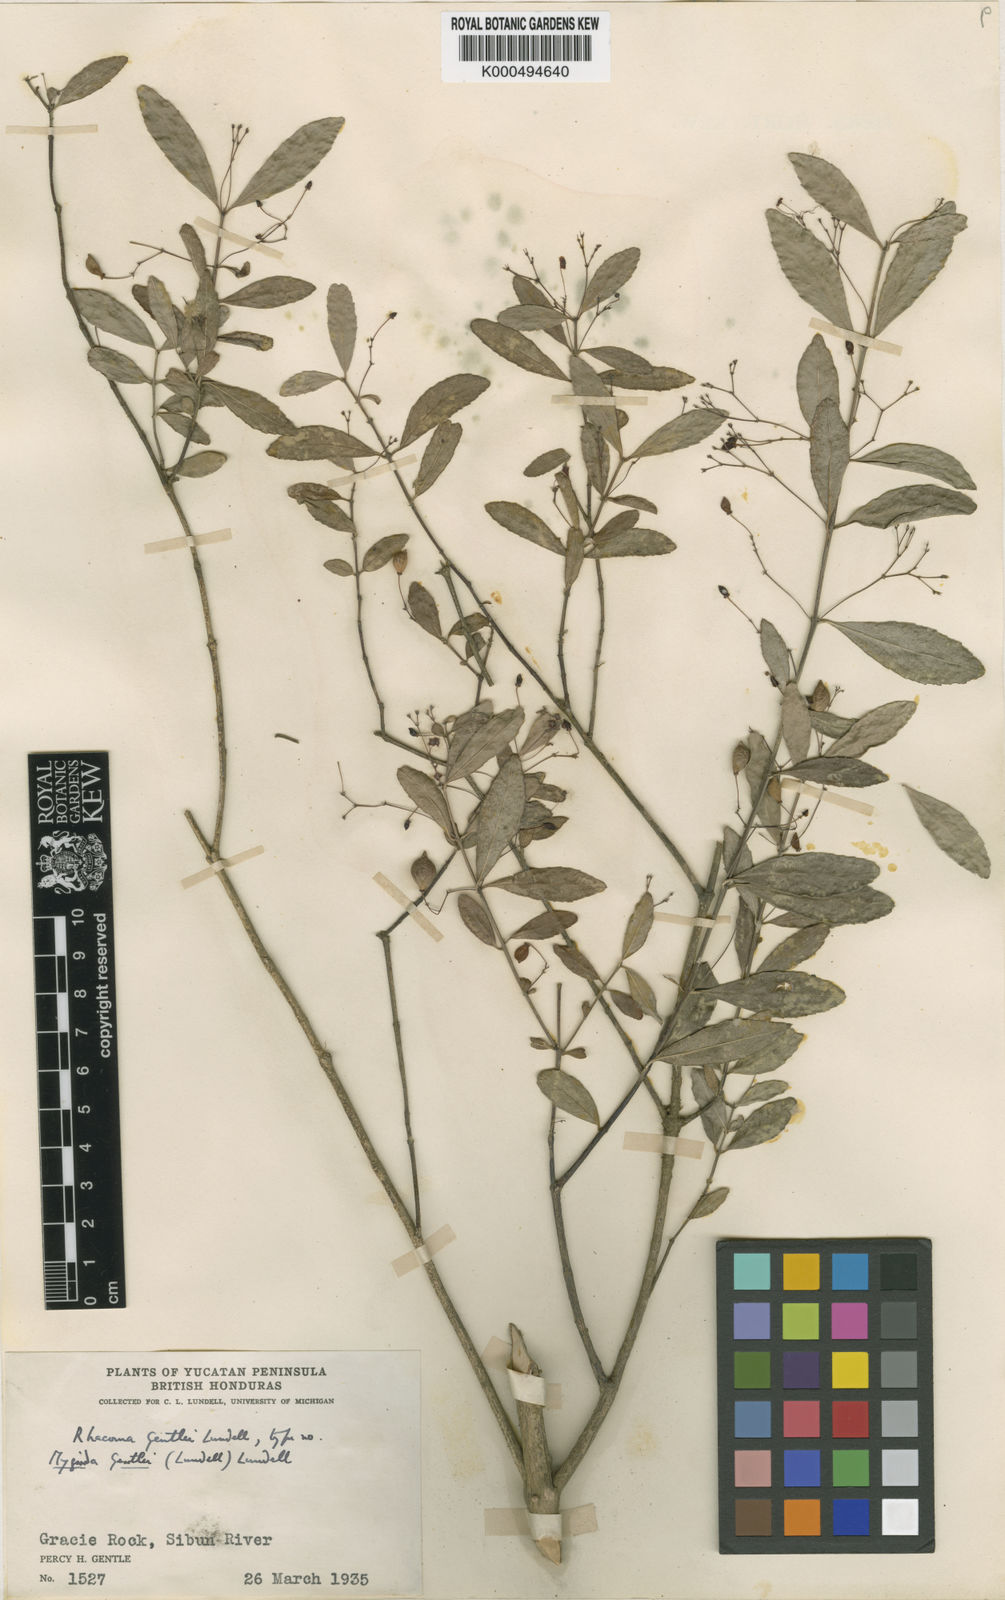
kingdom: Plantae
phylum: Tracheophyta
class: Magnoliopsida
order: Celastrales
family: Celastraceae
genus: Crossopetalum
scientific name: Crossopetalum filipes
